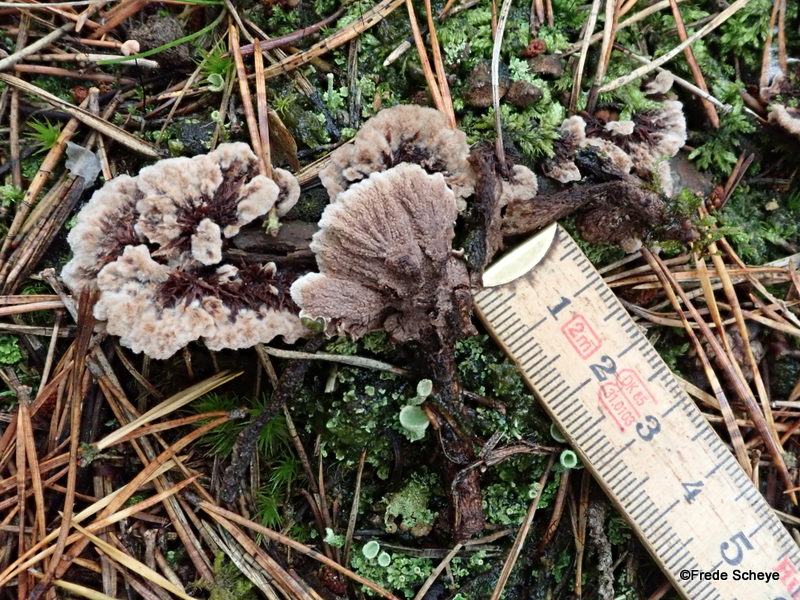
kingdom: Fungi
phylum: Basidiomycota
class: Agaricomycetes
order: Thelephorales
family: Thelephoraceae
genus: Thelephora
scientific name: Thelephora terrestris
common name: fliget frynsesvamp
